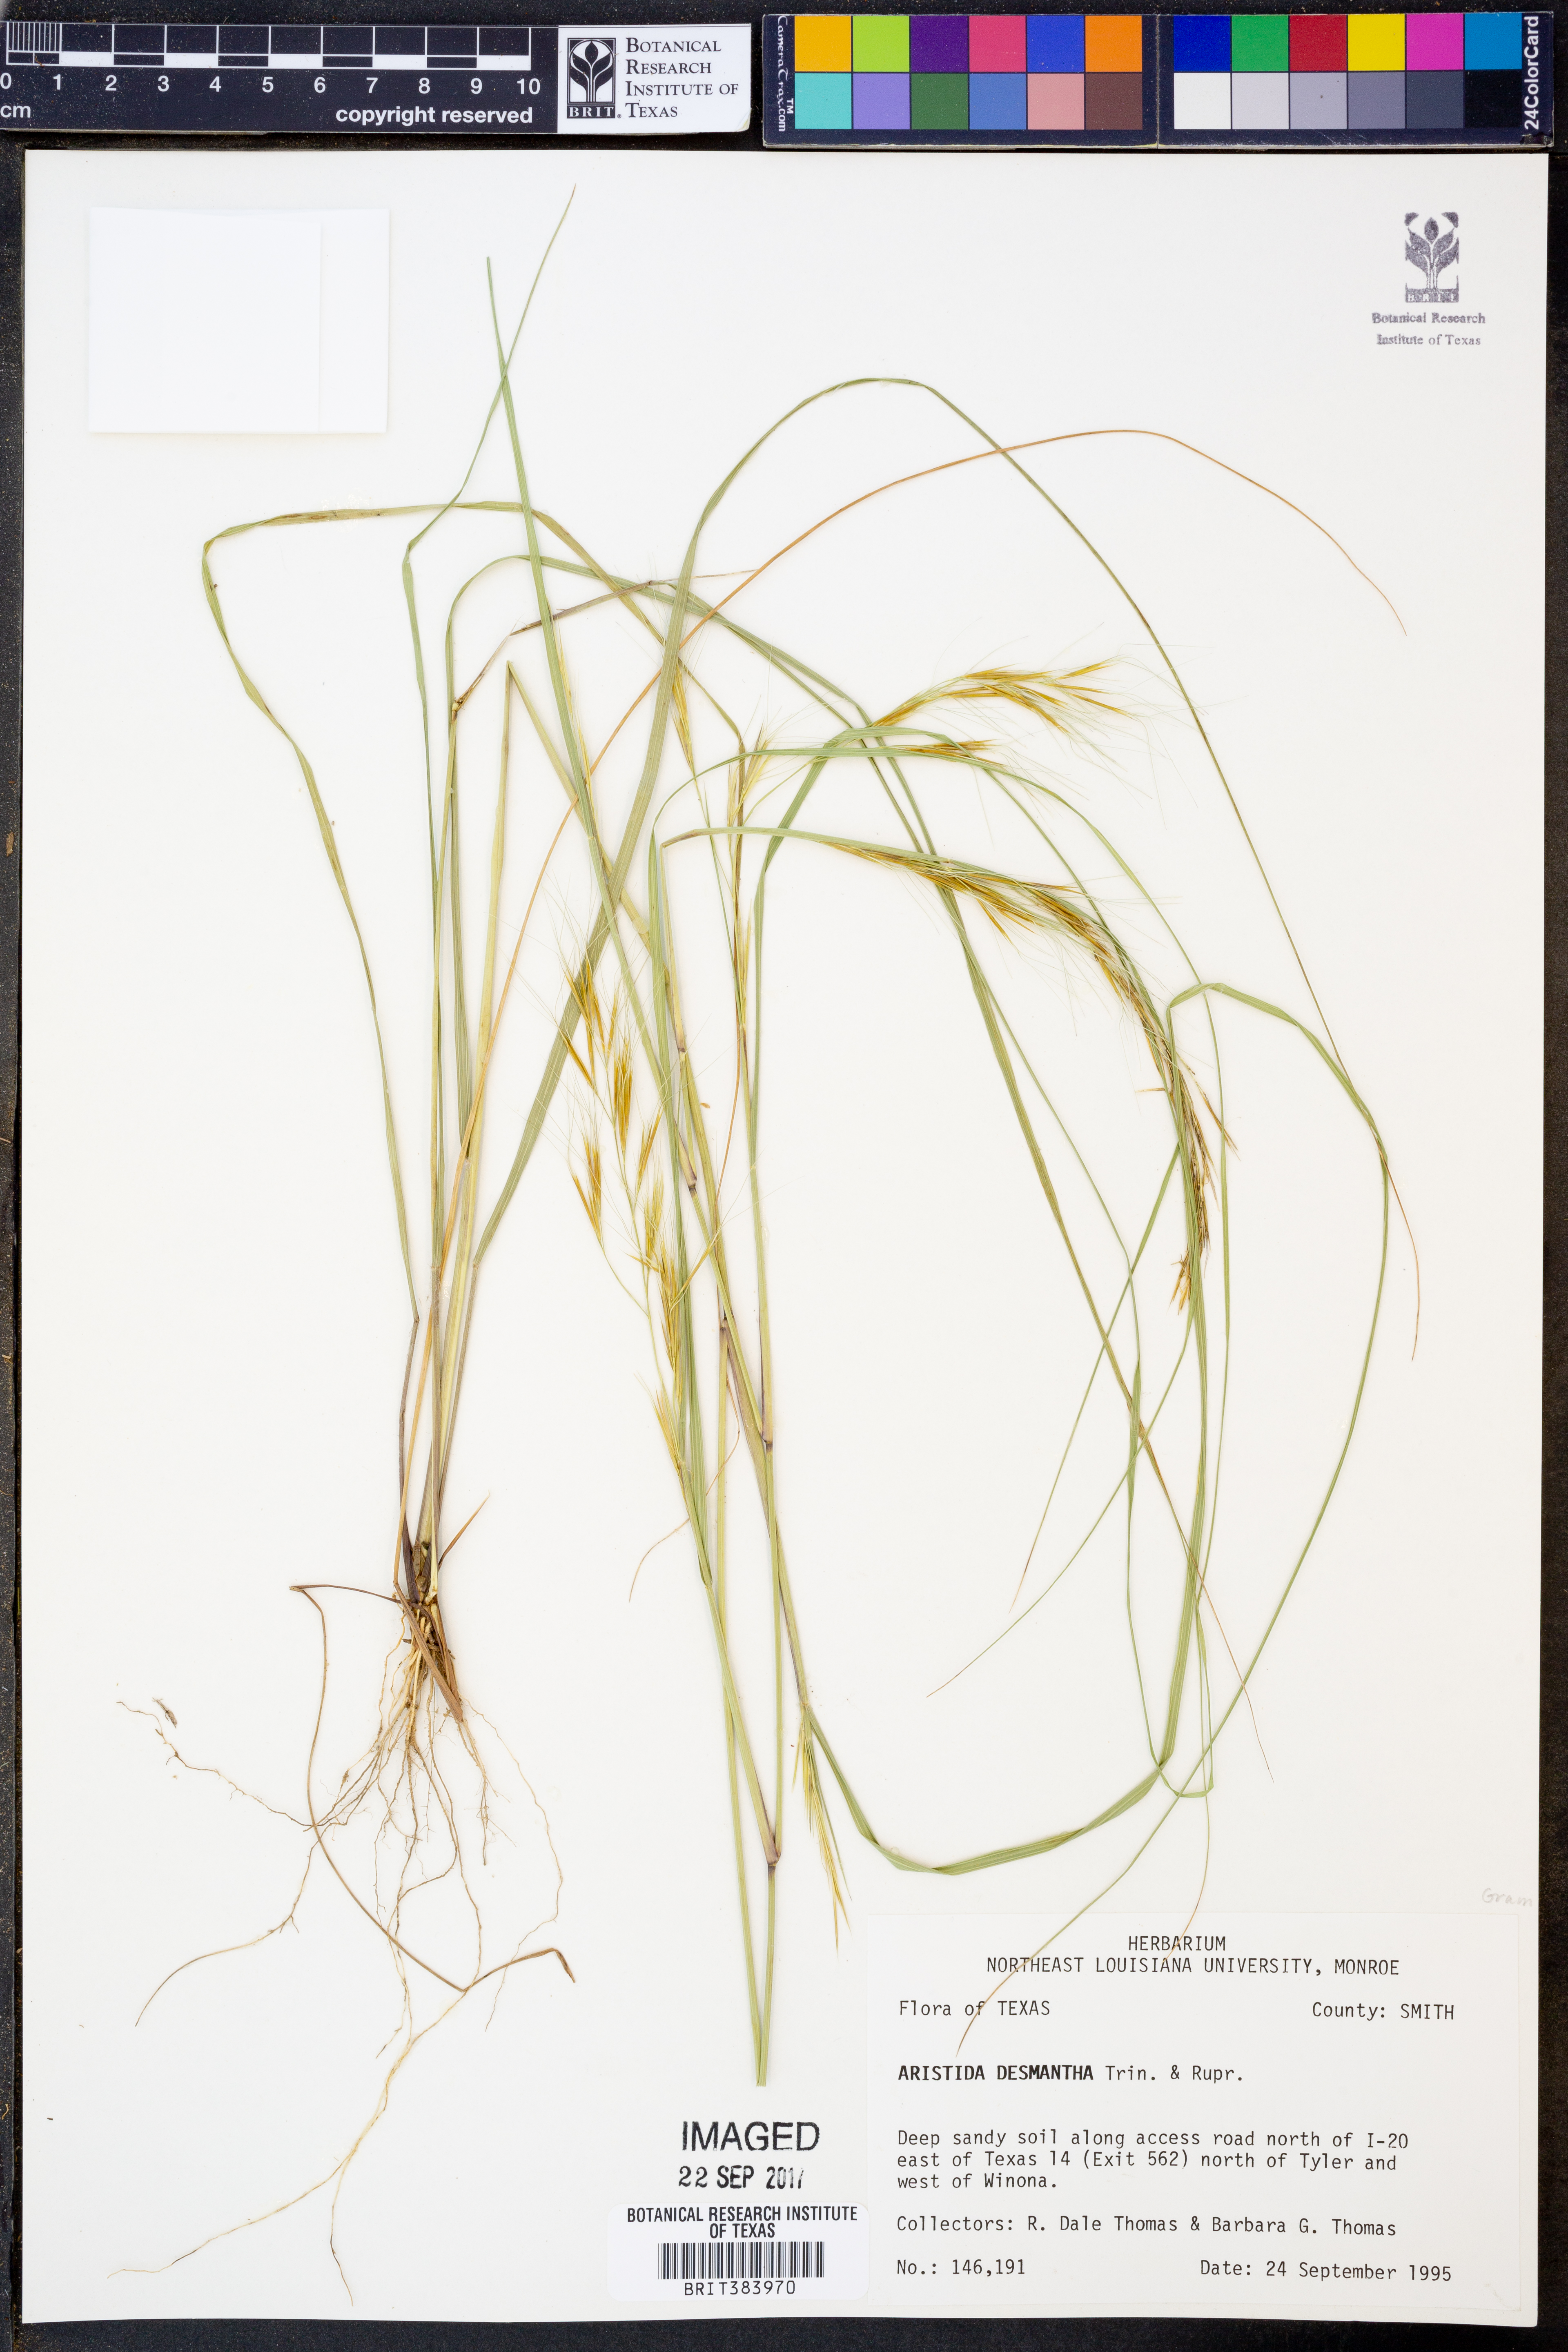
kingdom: Plantae
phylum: Tracheophyta
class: Liliopsida
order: Poales
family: Poaceae
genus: Aristida
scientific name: Aristida desmantha
